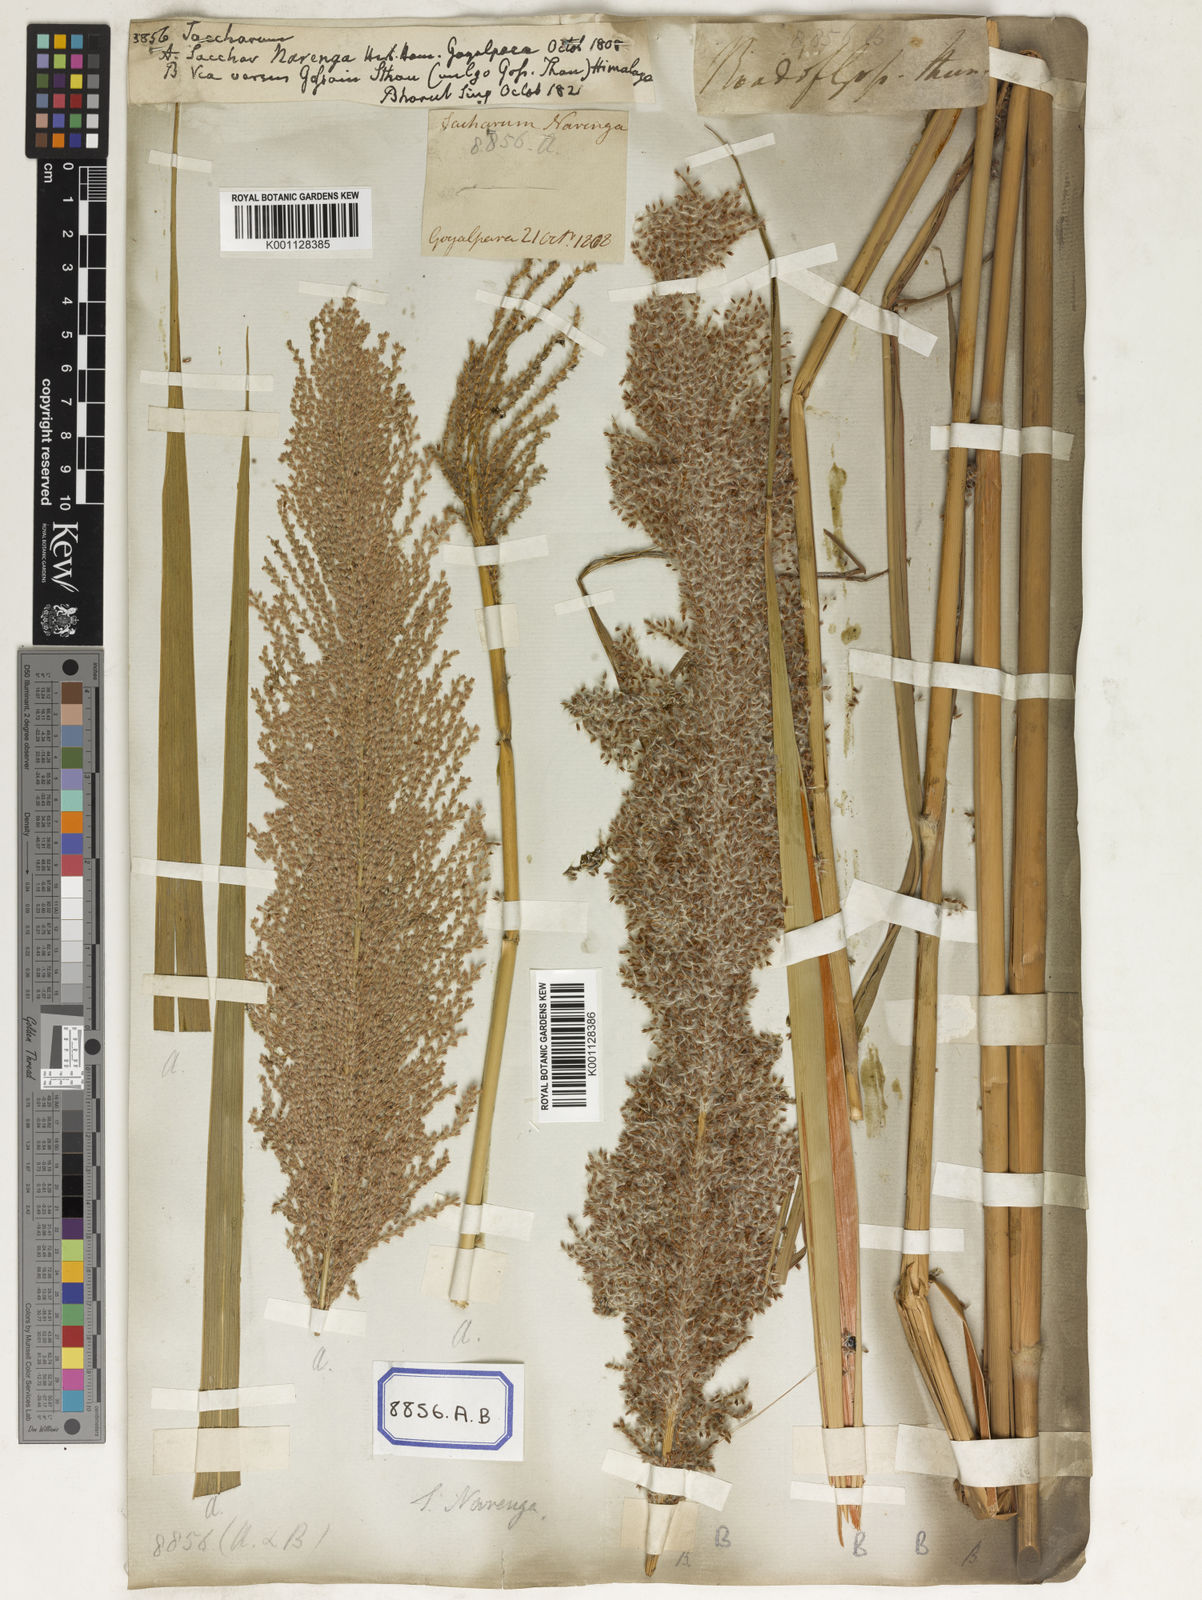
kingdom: Plantae
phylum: Tracheophyta
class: Liliopsida
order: Poales
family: Poaceae
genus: Saccharum
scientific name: Saccharum
